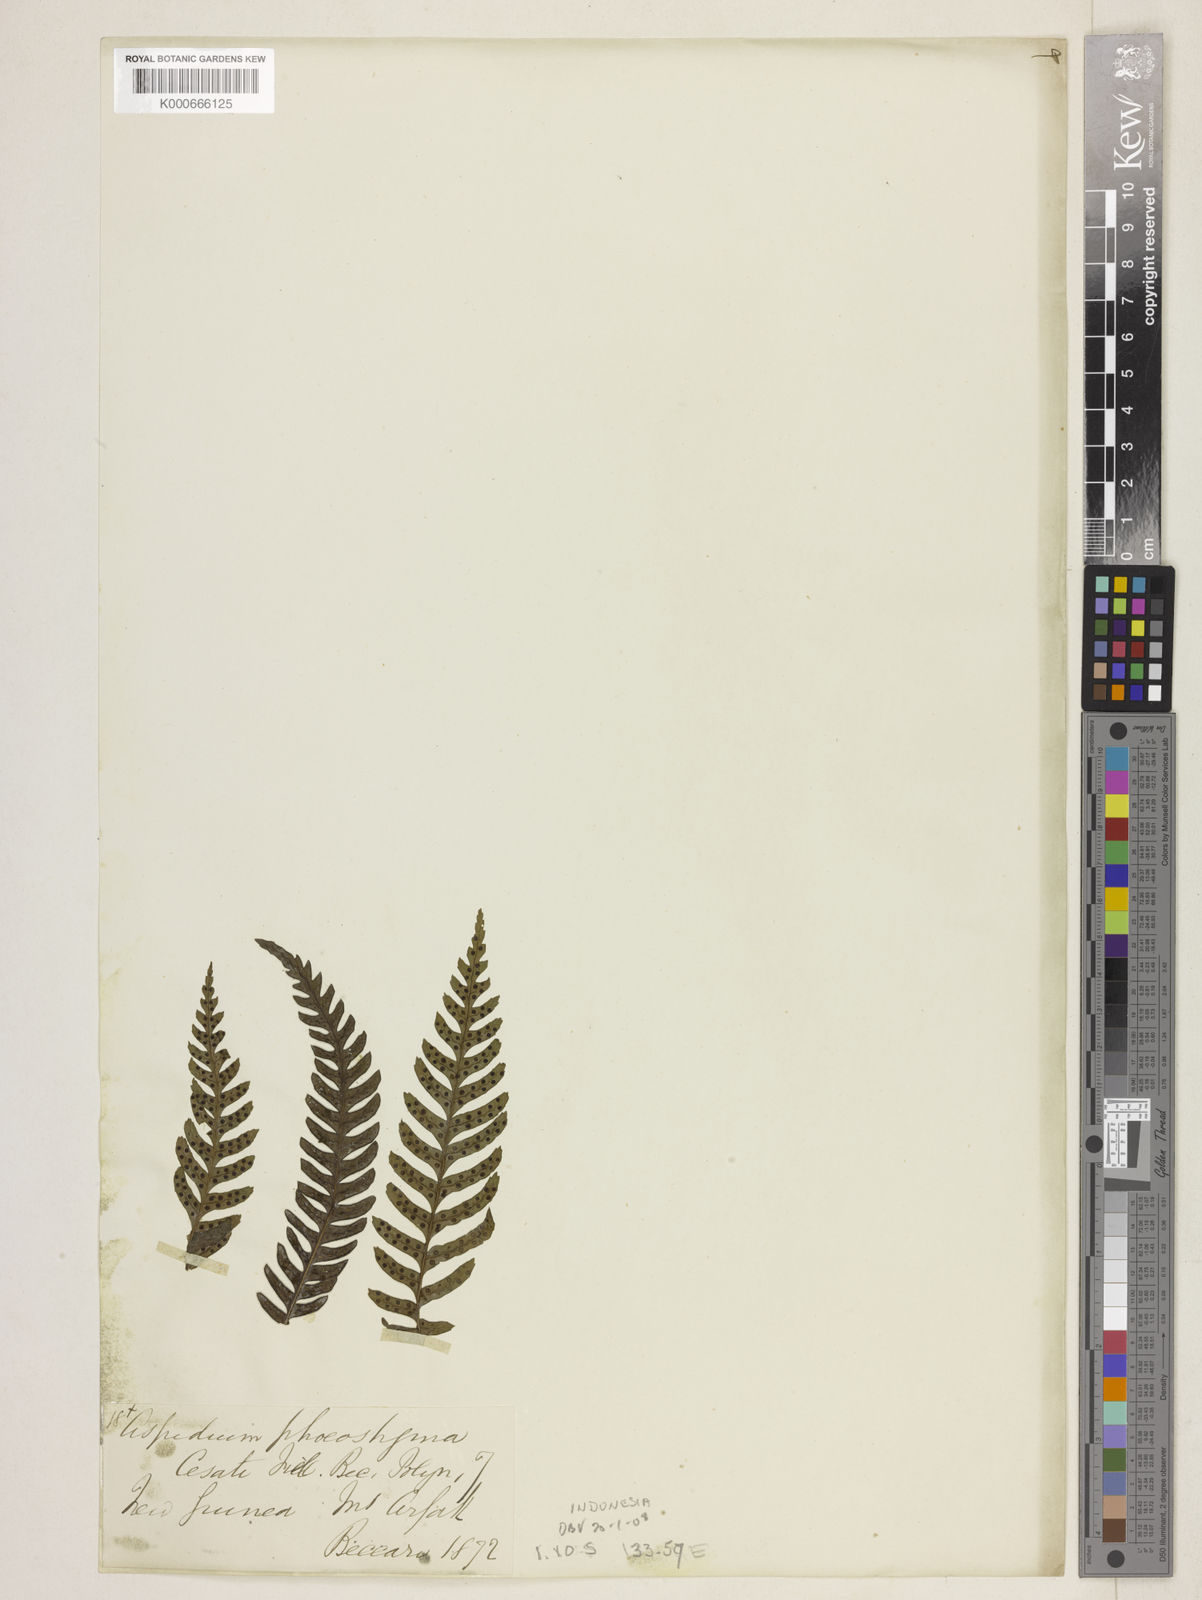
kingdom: Plantae
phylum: Tracheophyta
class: Polypodiopsida
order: Polypodiales
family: Lomariopsidaceae
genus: Dryopolystichum
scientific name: Dryopolystichum phaeostigma
